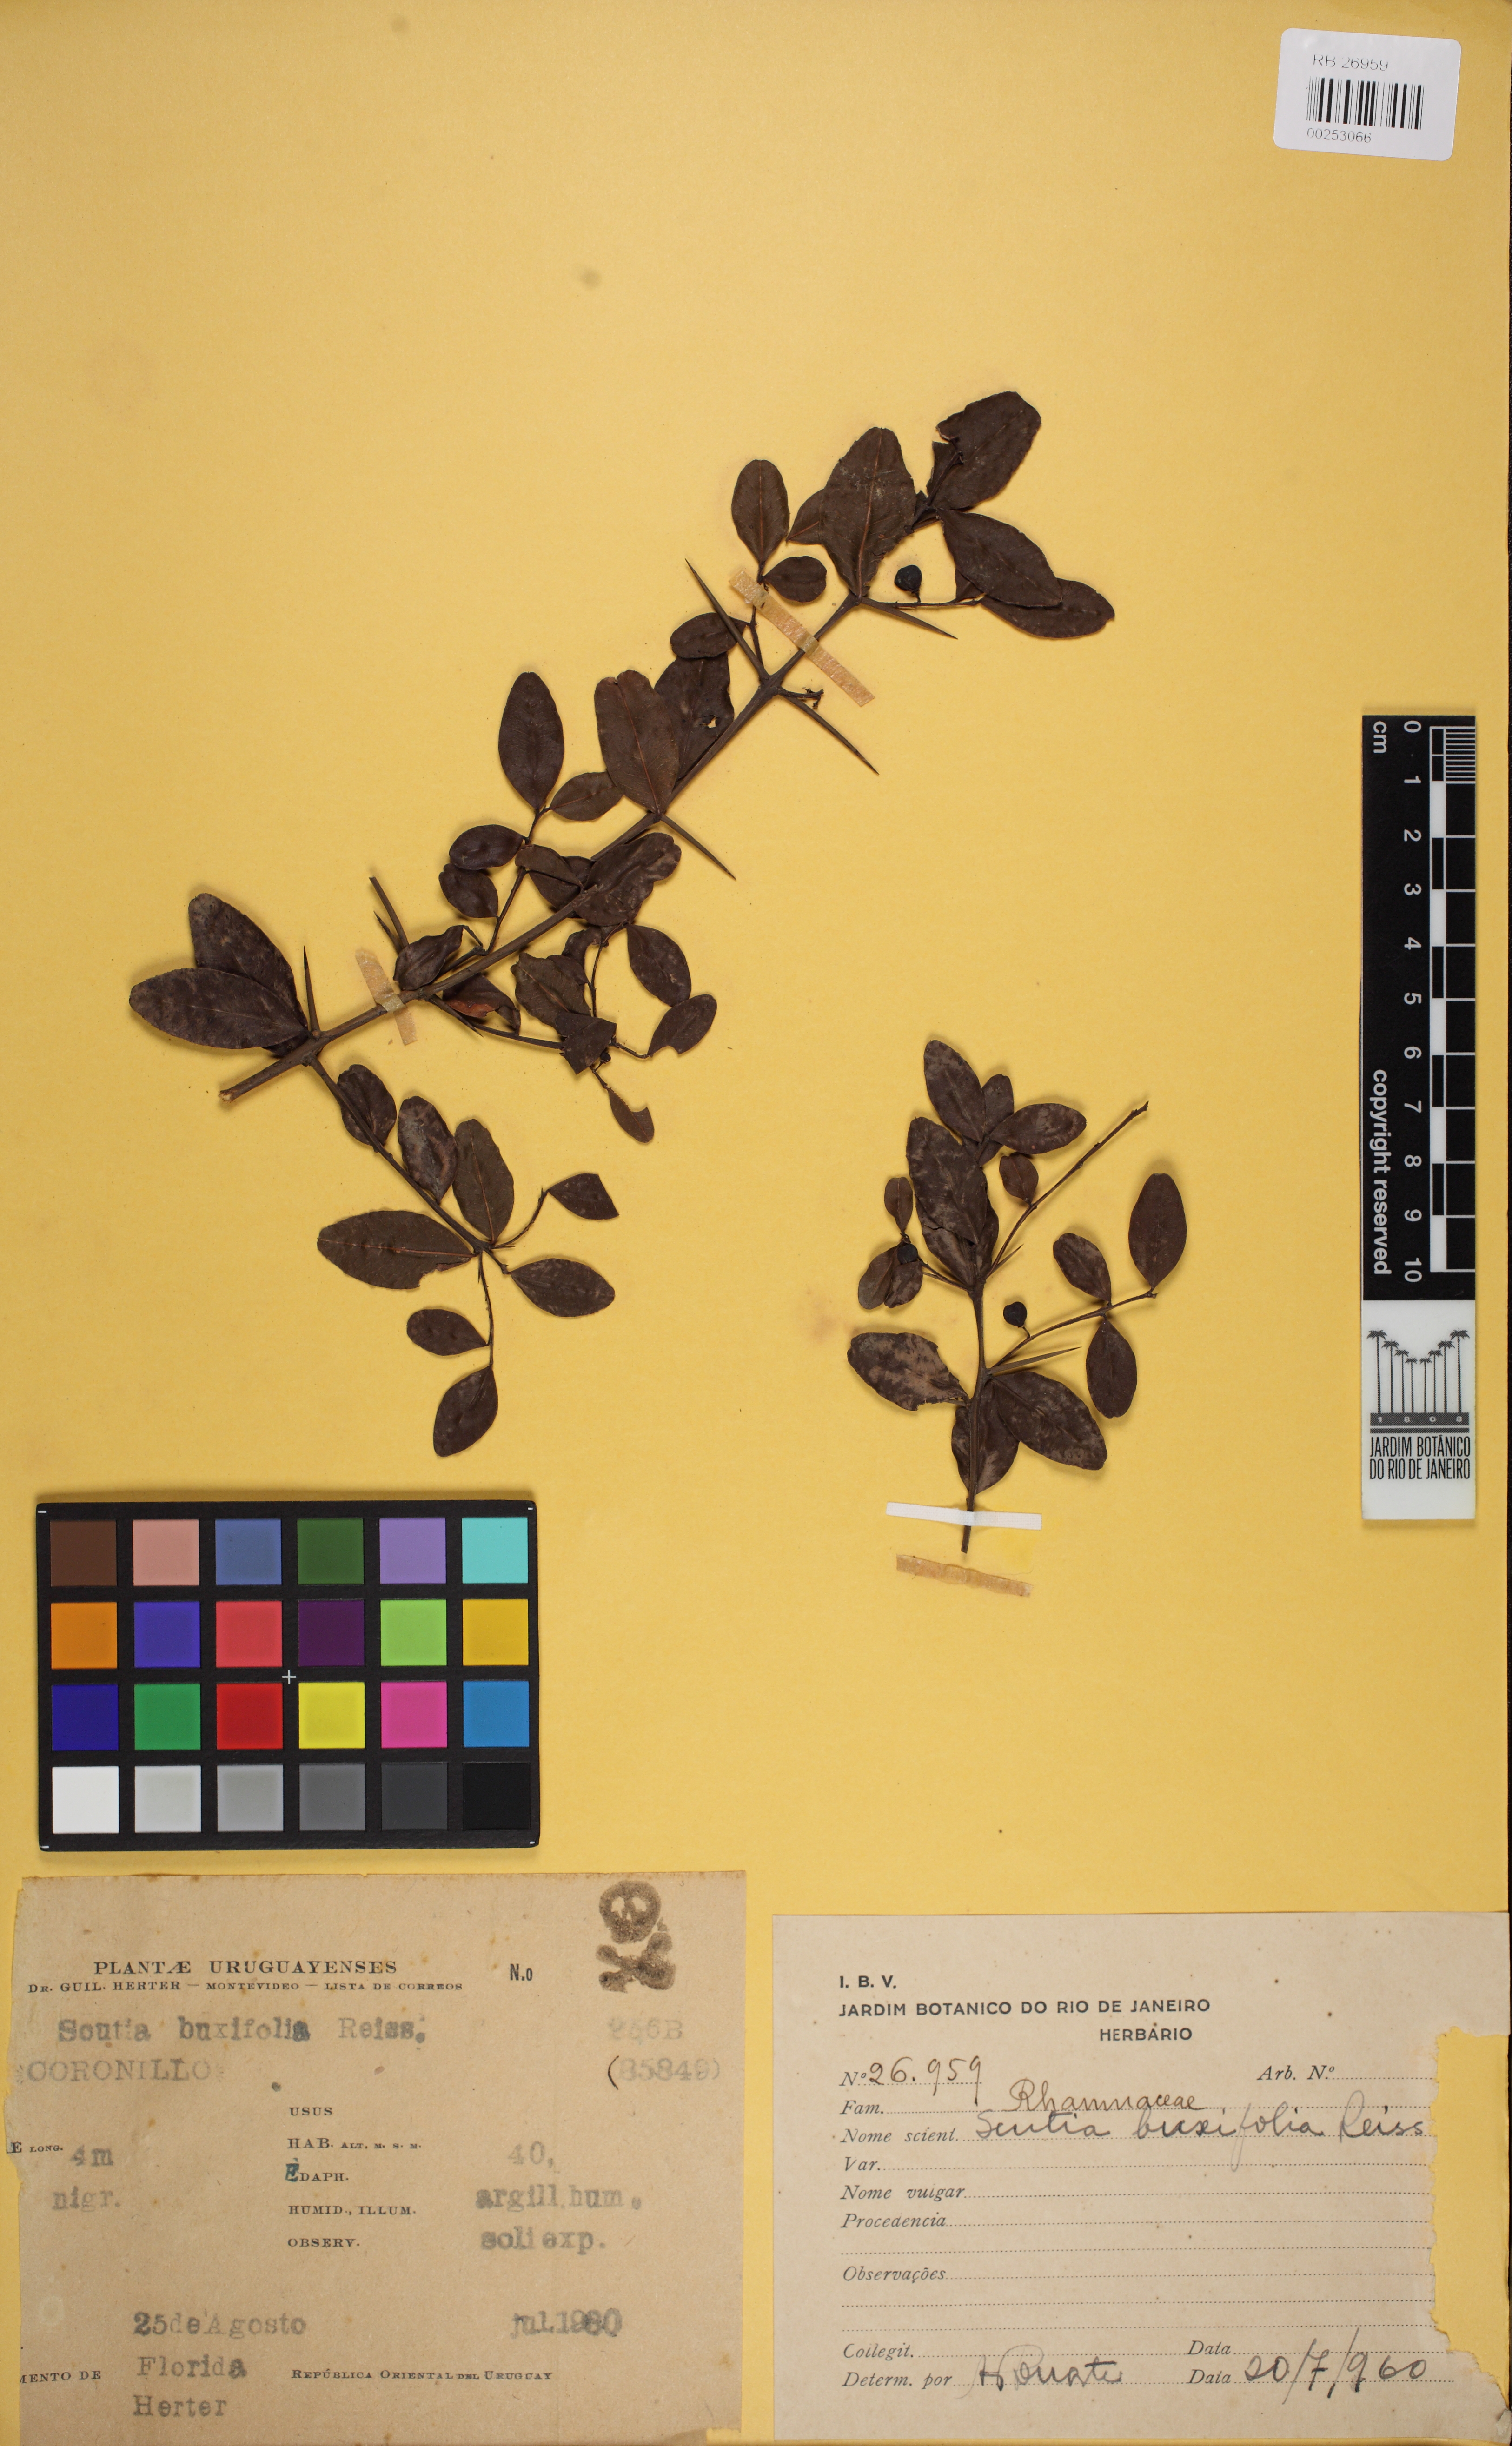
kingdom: Plantae
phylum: Tracheophyta
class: Magnoliopsida
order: Rosales
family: Rhamnaceae
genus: Scutia
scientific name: Scutia buxifolia
